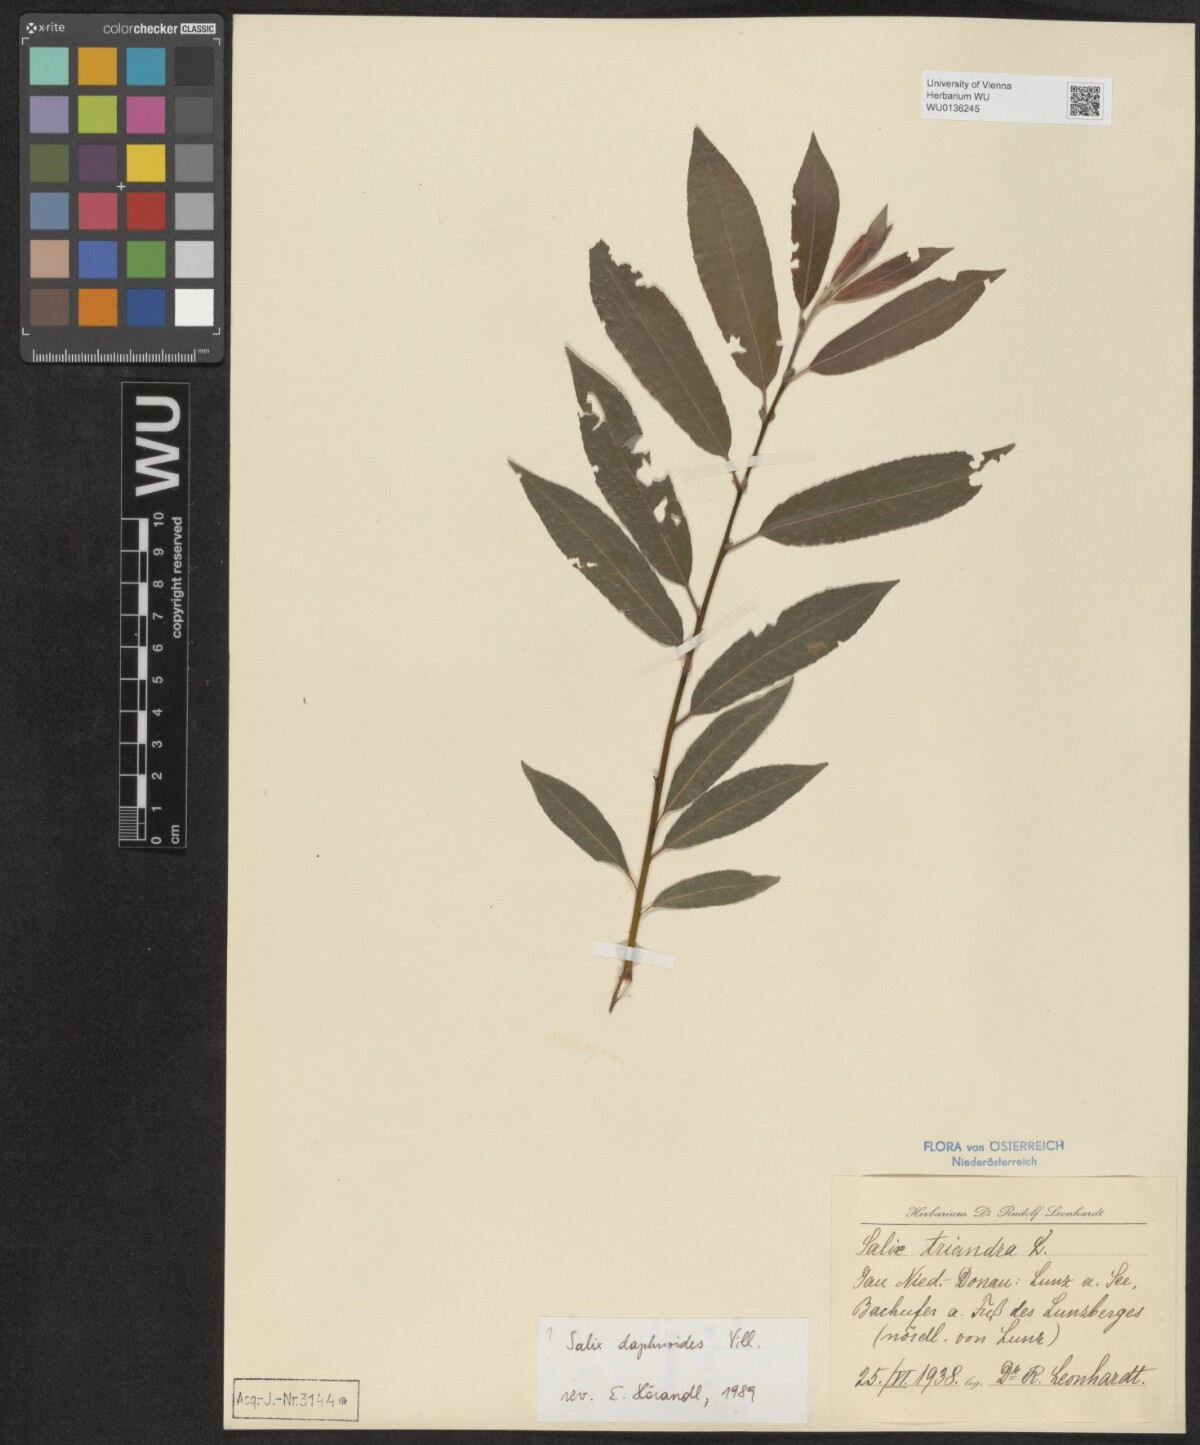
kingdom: Plantae
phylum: Tracheophyta
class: Magnoliopsida
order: Malpighiales
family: Salicaceae
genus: Salix
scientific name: Salix daphnoides
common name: European violet-willow
